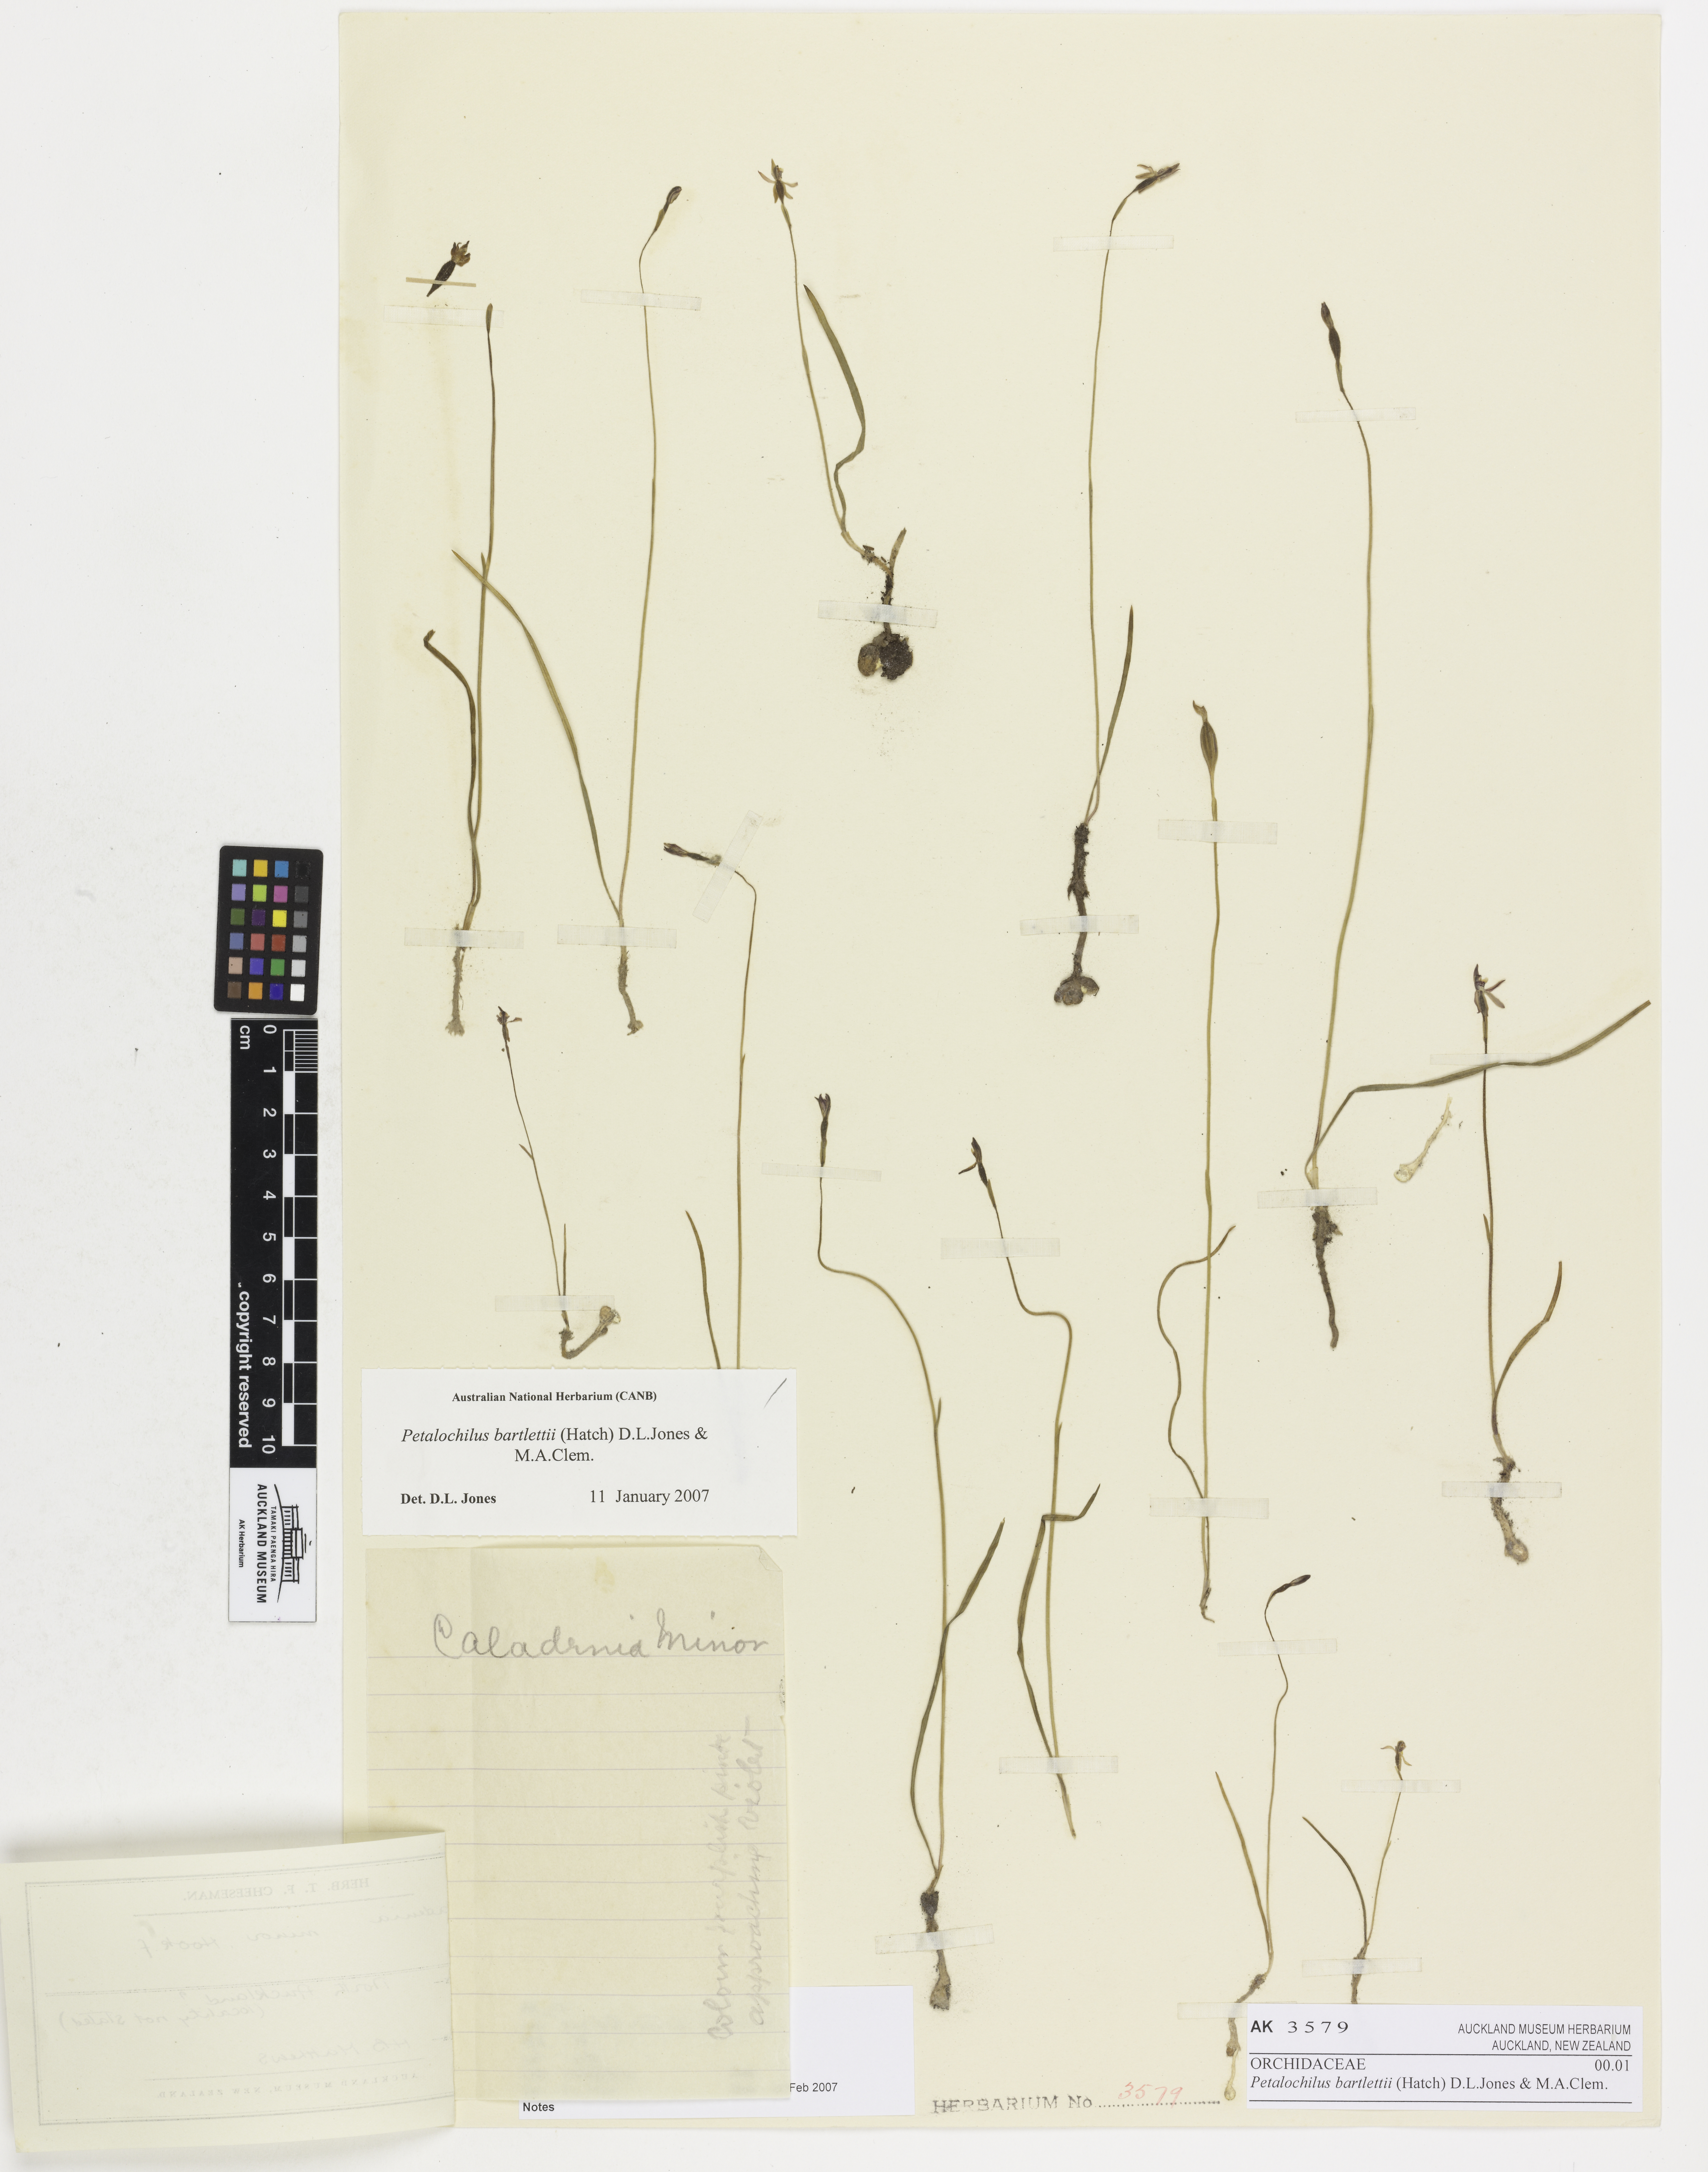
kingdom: Plantae
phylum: Tracheophyta
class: Liliopsida
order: Asparagales
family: Orchidaceae
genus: Caladenia
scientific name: Caladenia bartlettii
